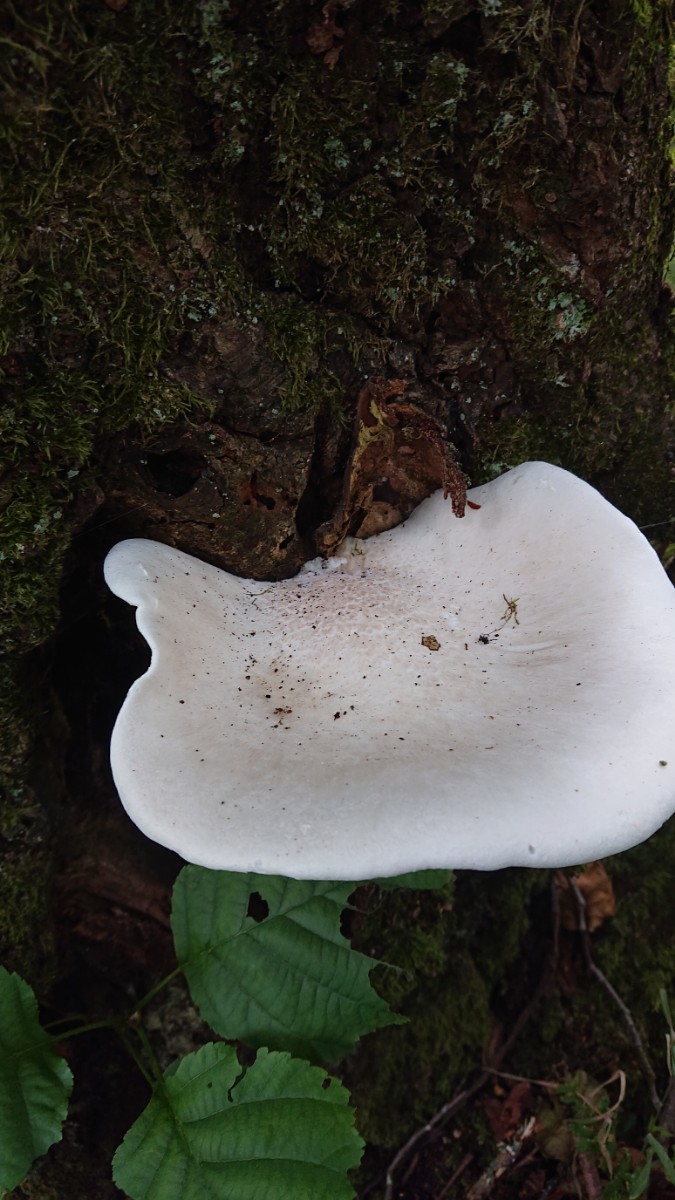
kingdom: Fungi
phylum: Basidiomycota
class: Agaricomycetes
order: Agaricales
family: Pleurotaceae
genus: Pleurotus
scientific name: Pleurotus dryinus
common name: korkagtig østershat
